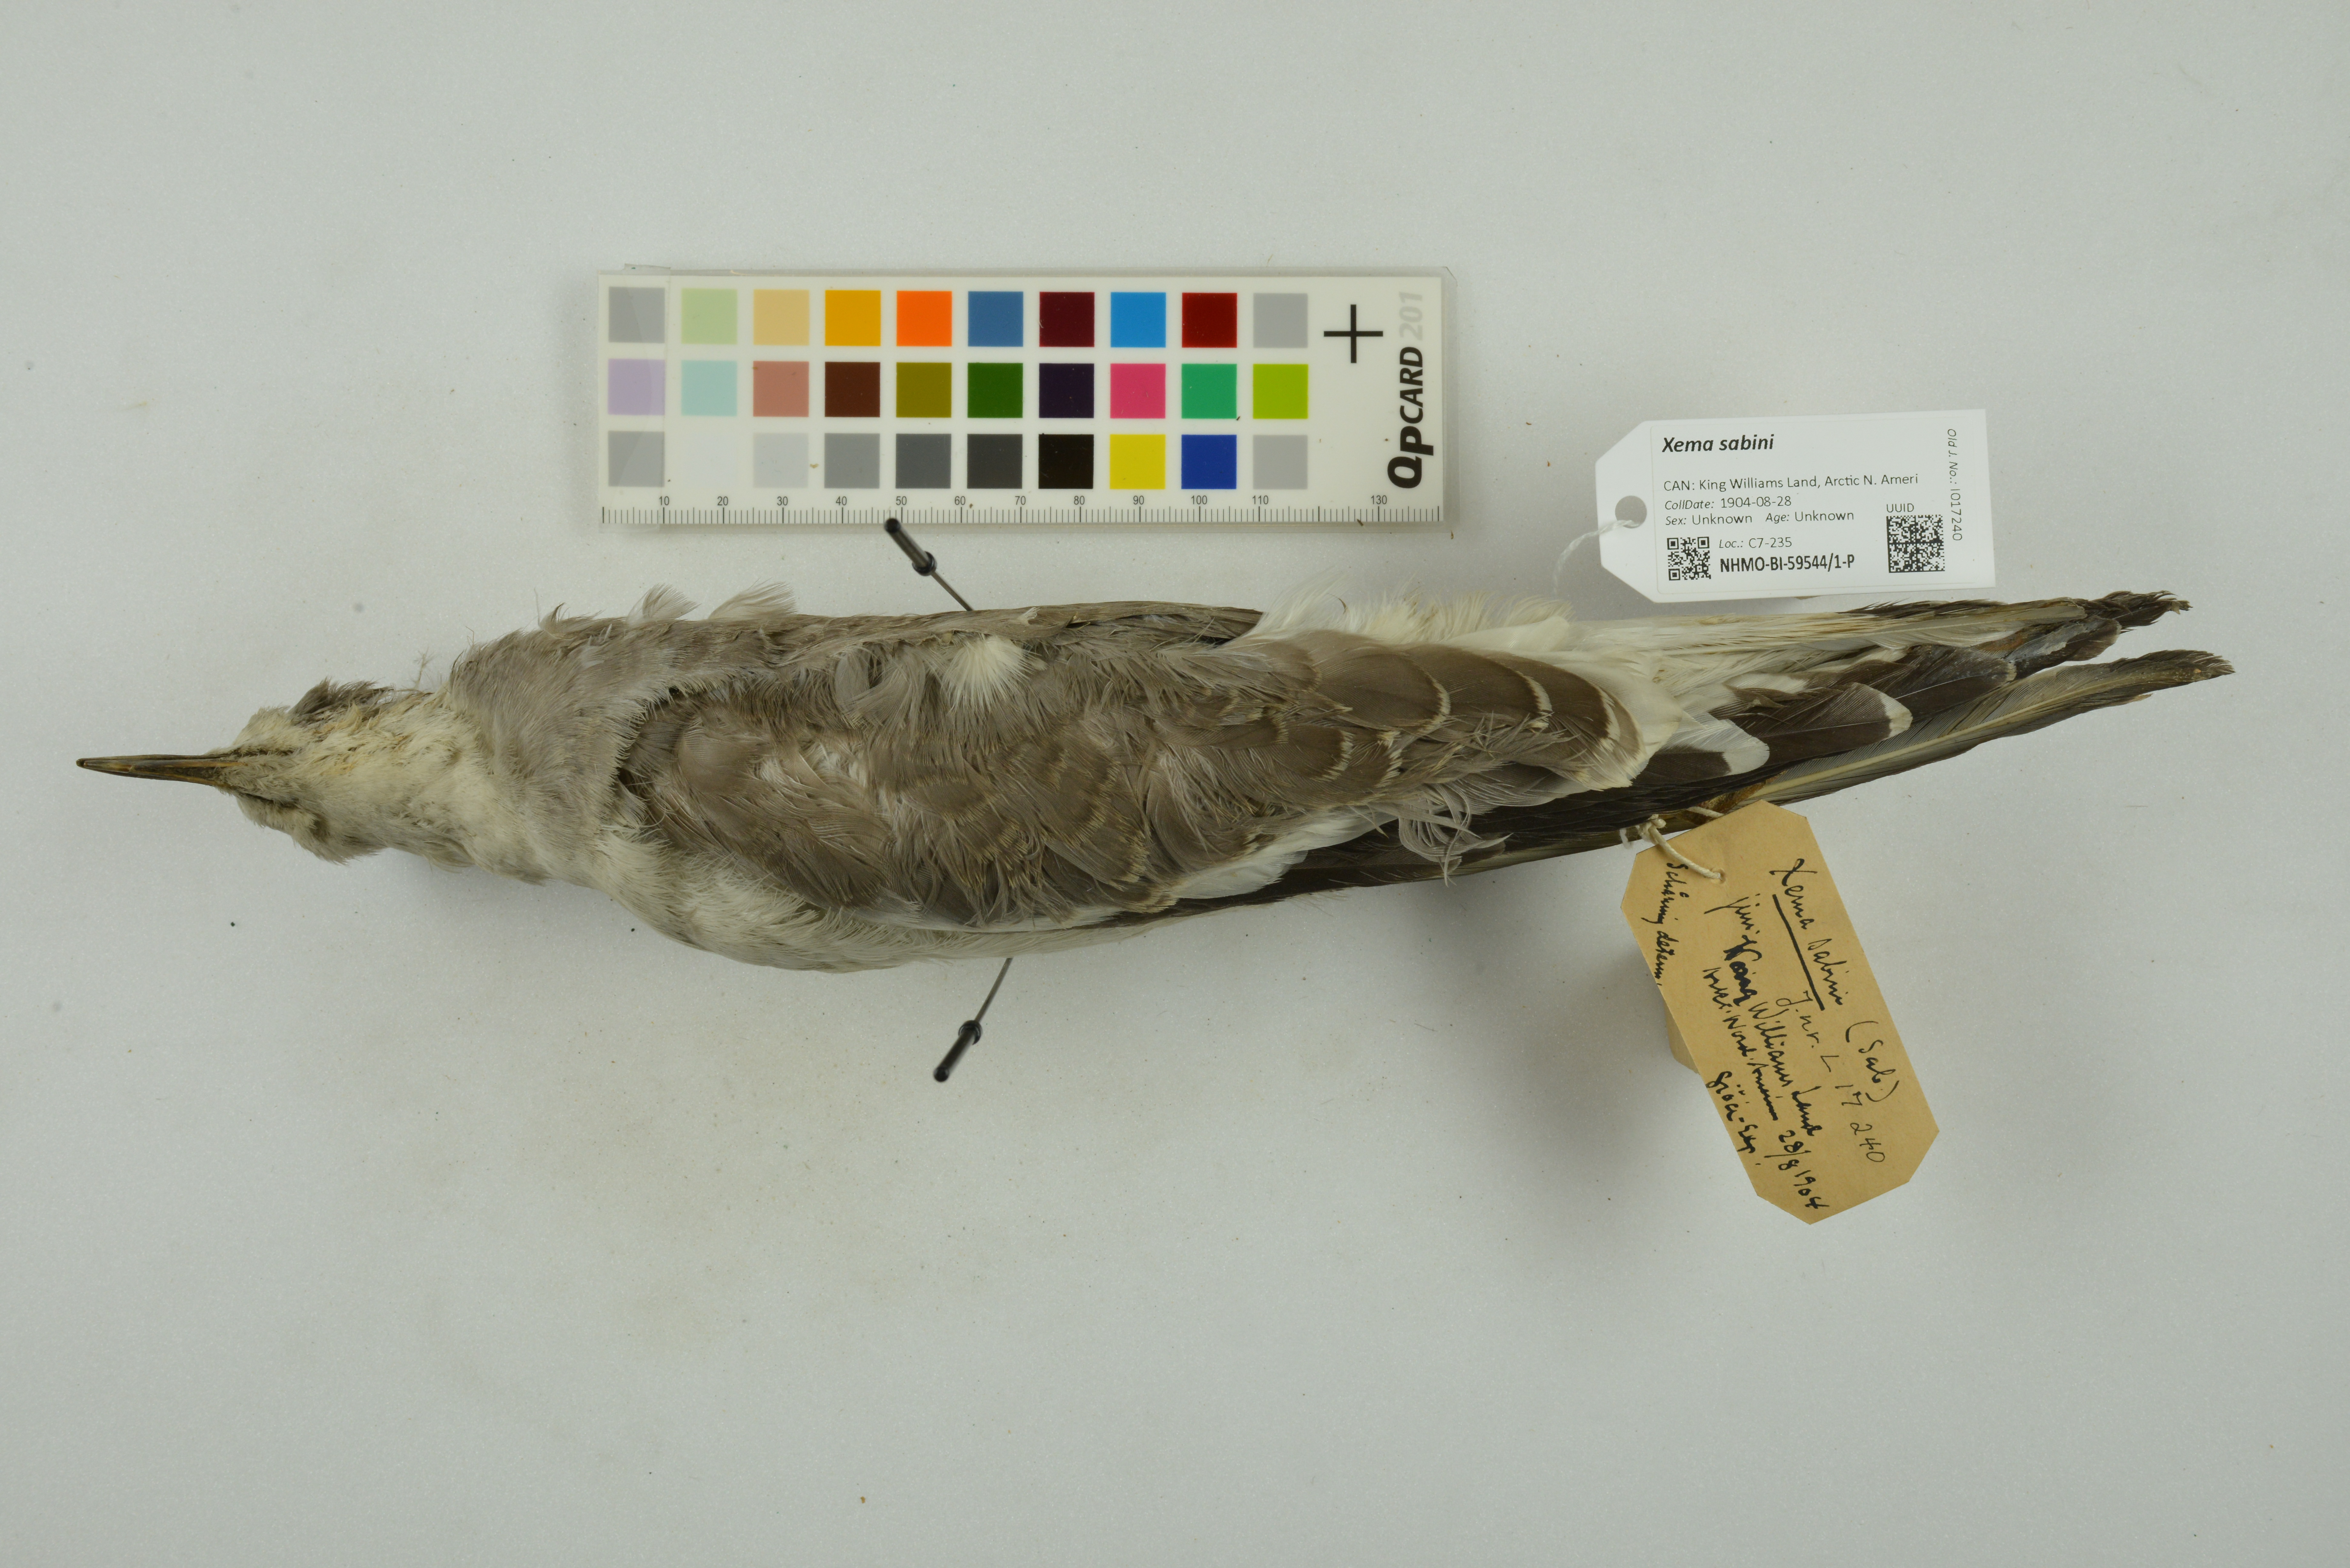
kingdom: Animalia
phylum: Chordata
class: Aves
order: Charadriiformes
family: Laridae
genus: Xema
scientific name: Xema sabini
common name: Sabine's gull
